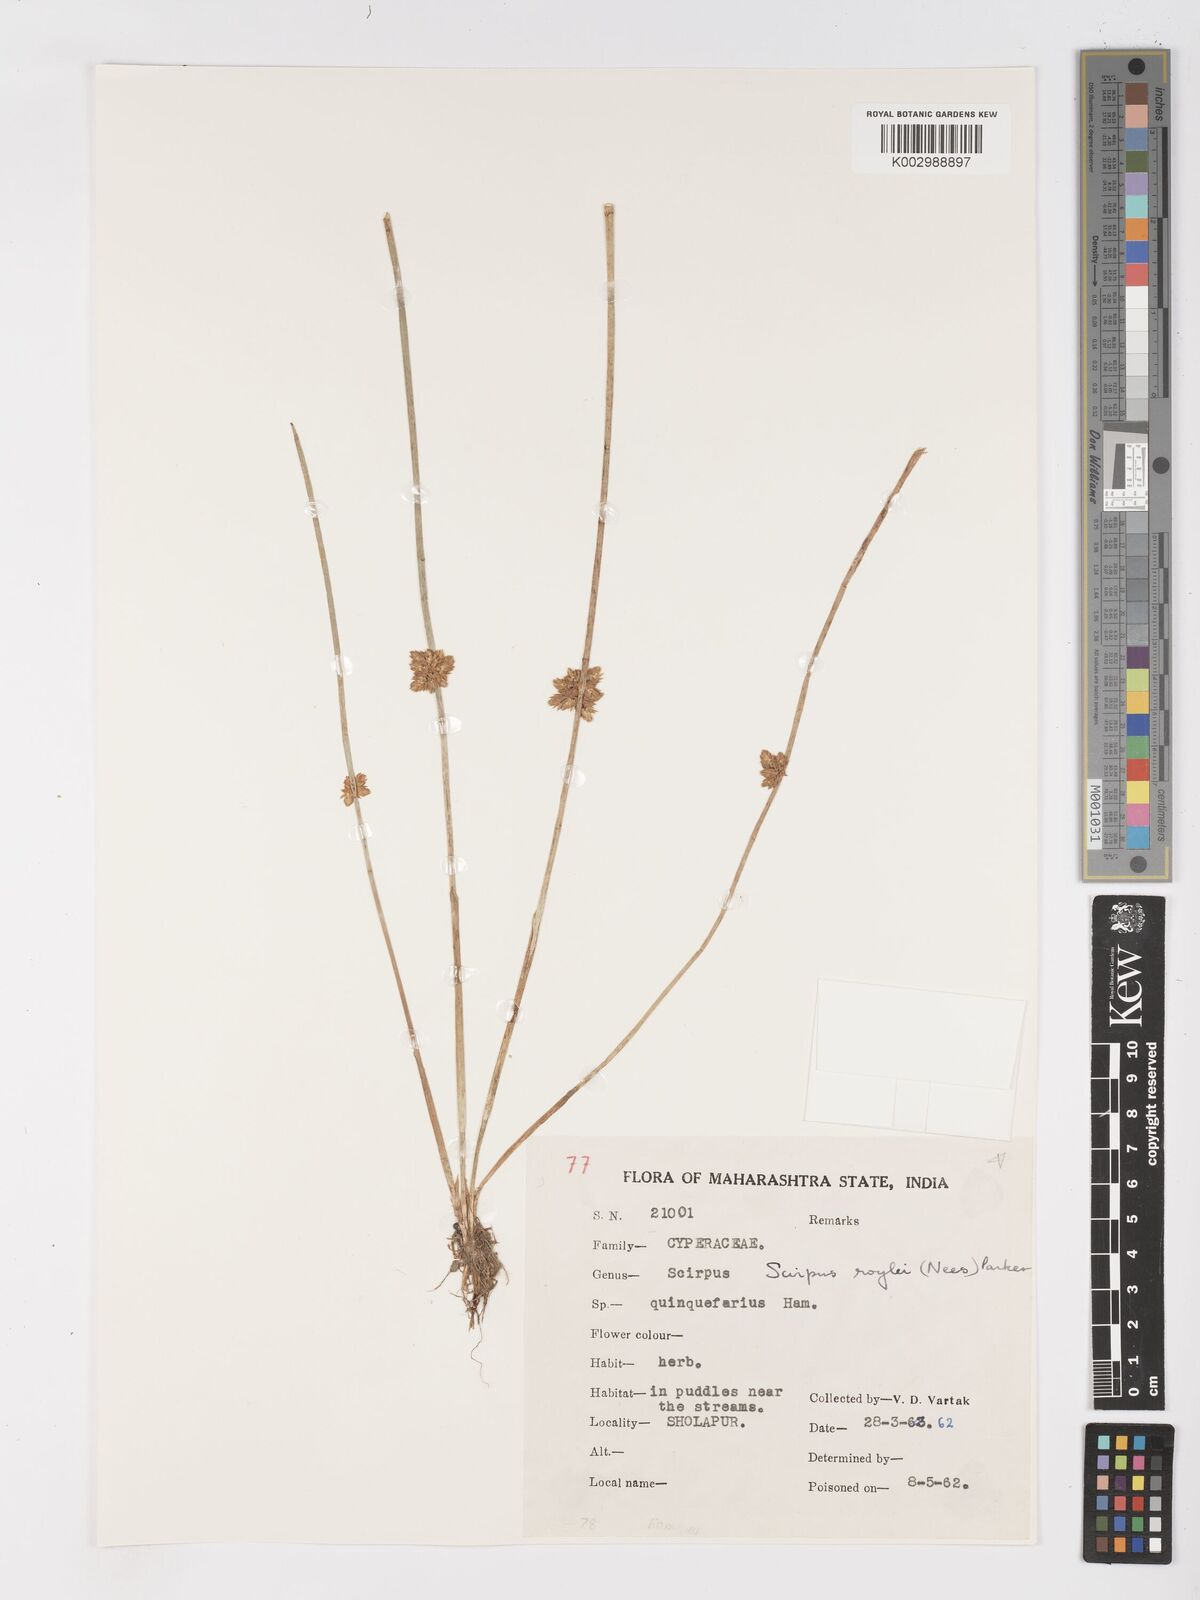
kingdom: Plantae
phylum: Tracheophyta
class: Liliopsida
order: Poales
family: Cyperaceae
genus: Schoenoplectiella
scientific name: Schoenoplectiella roylei
